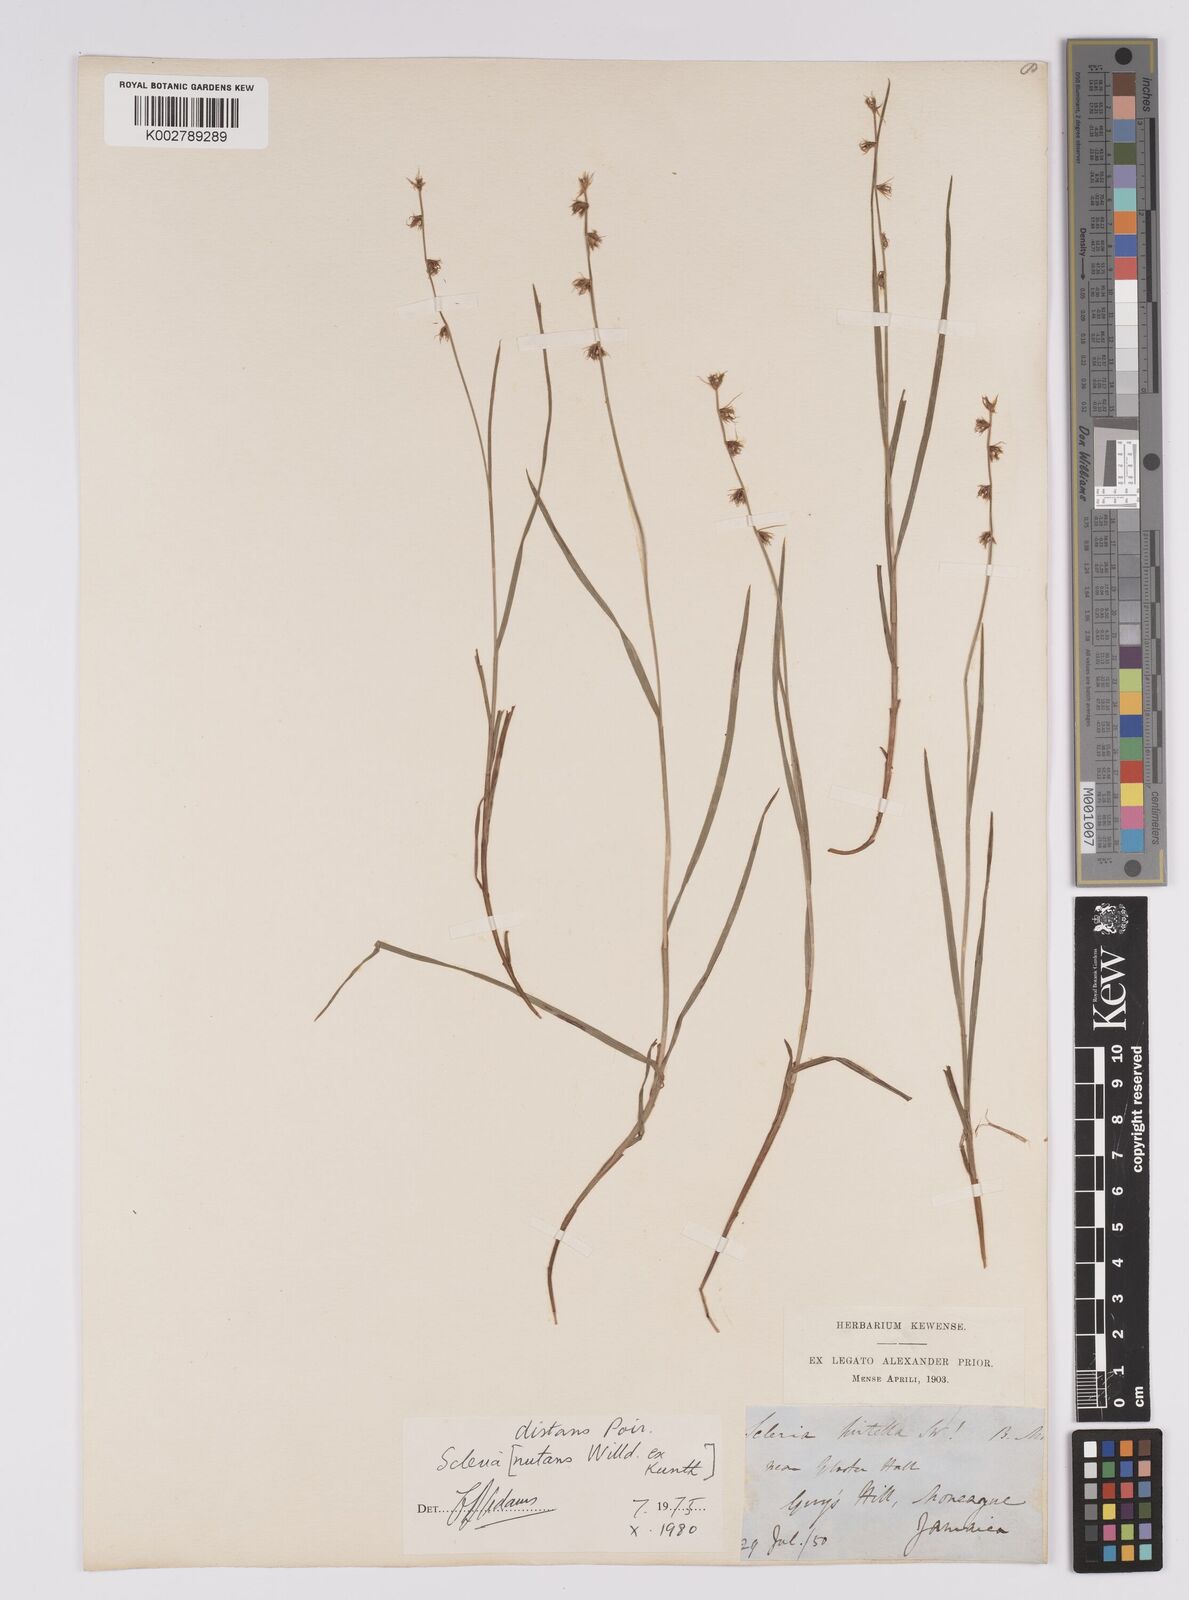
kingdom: Plantae
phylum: Tracheophyta
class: Liliopsida
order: Poales
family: Cyperaceae
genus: Scleria
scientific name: Scleria distans
